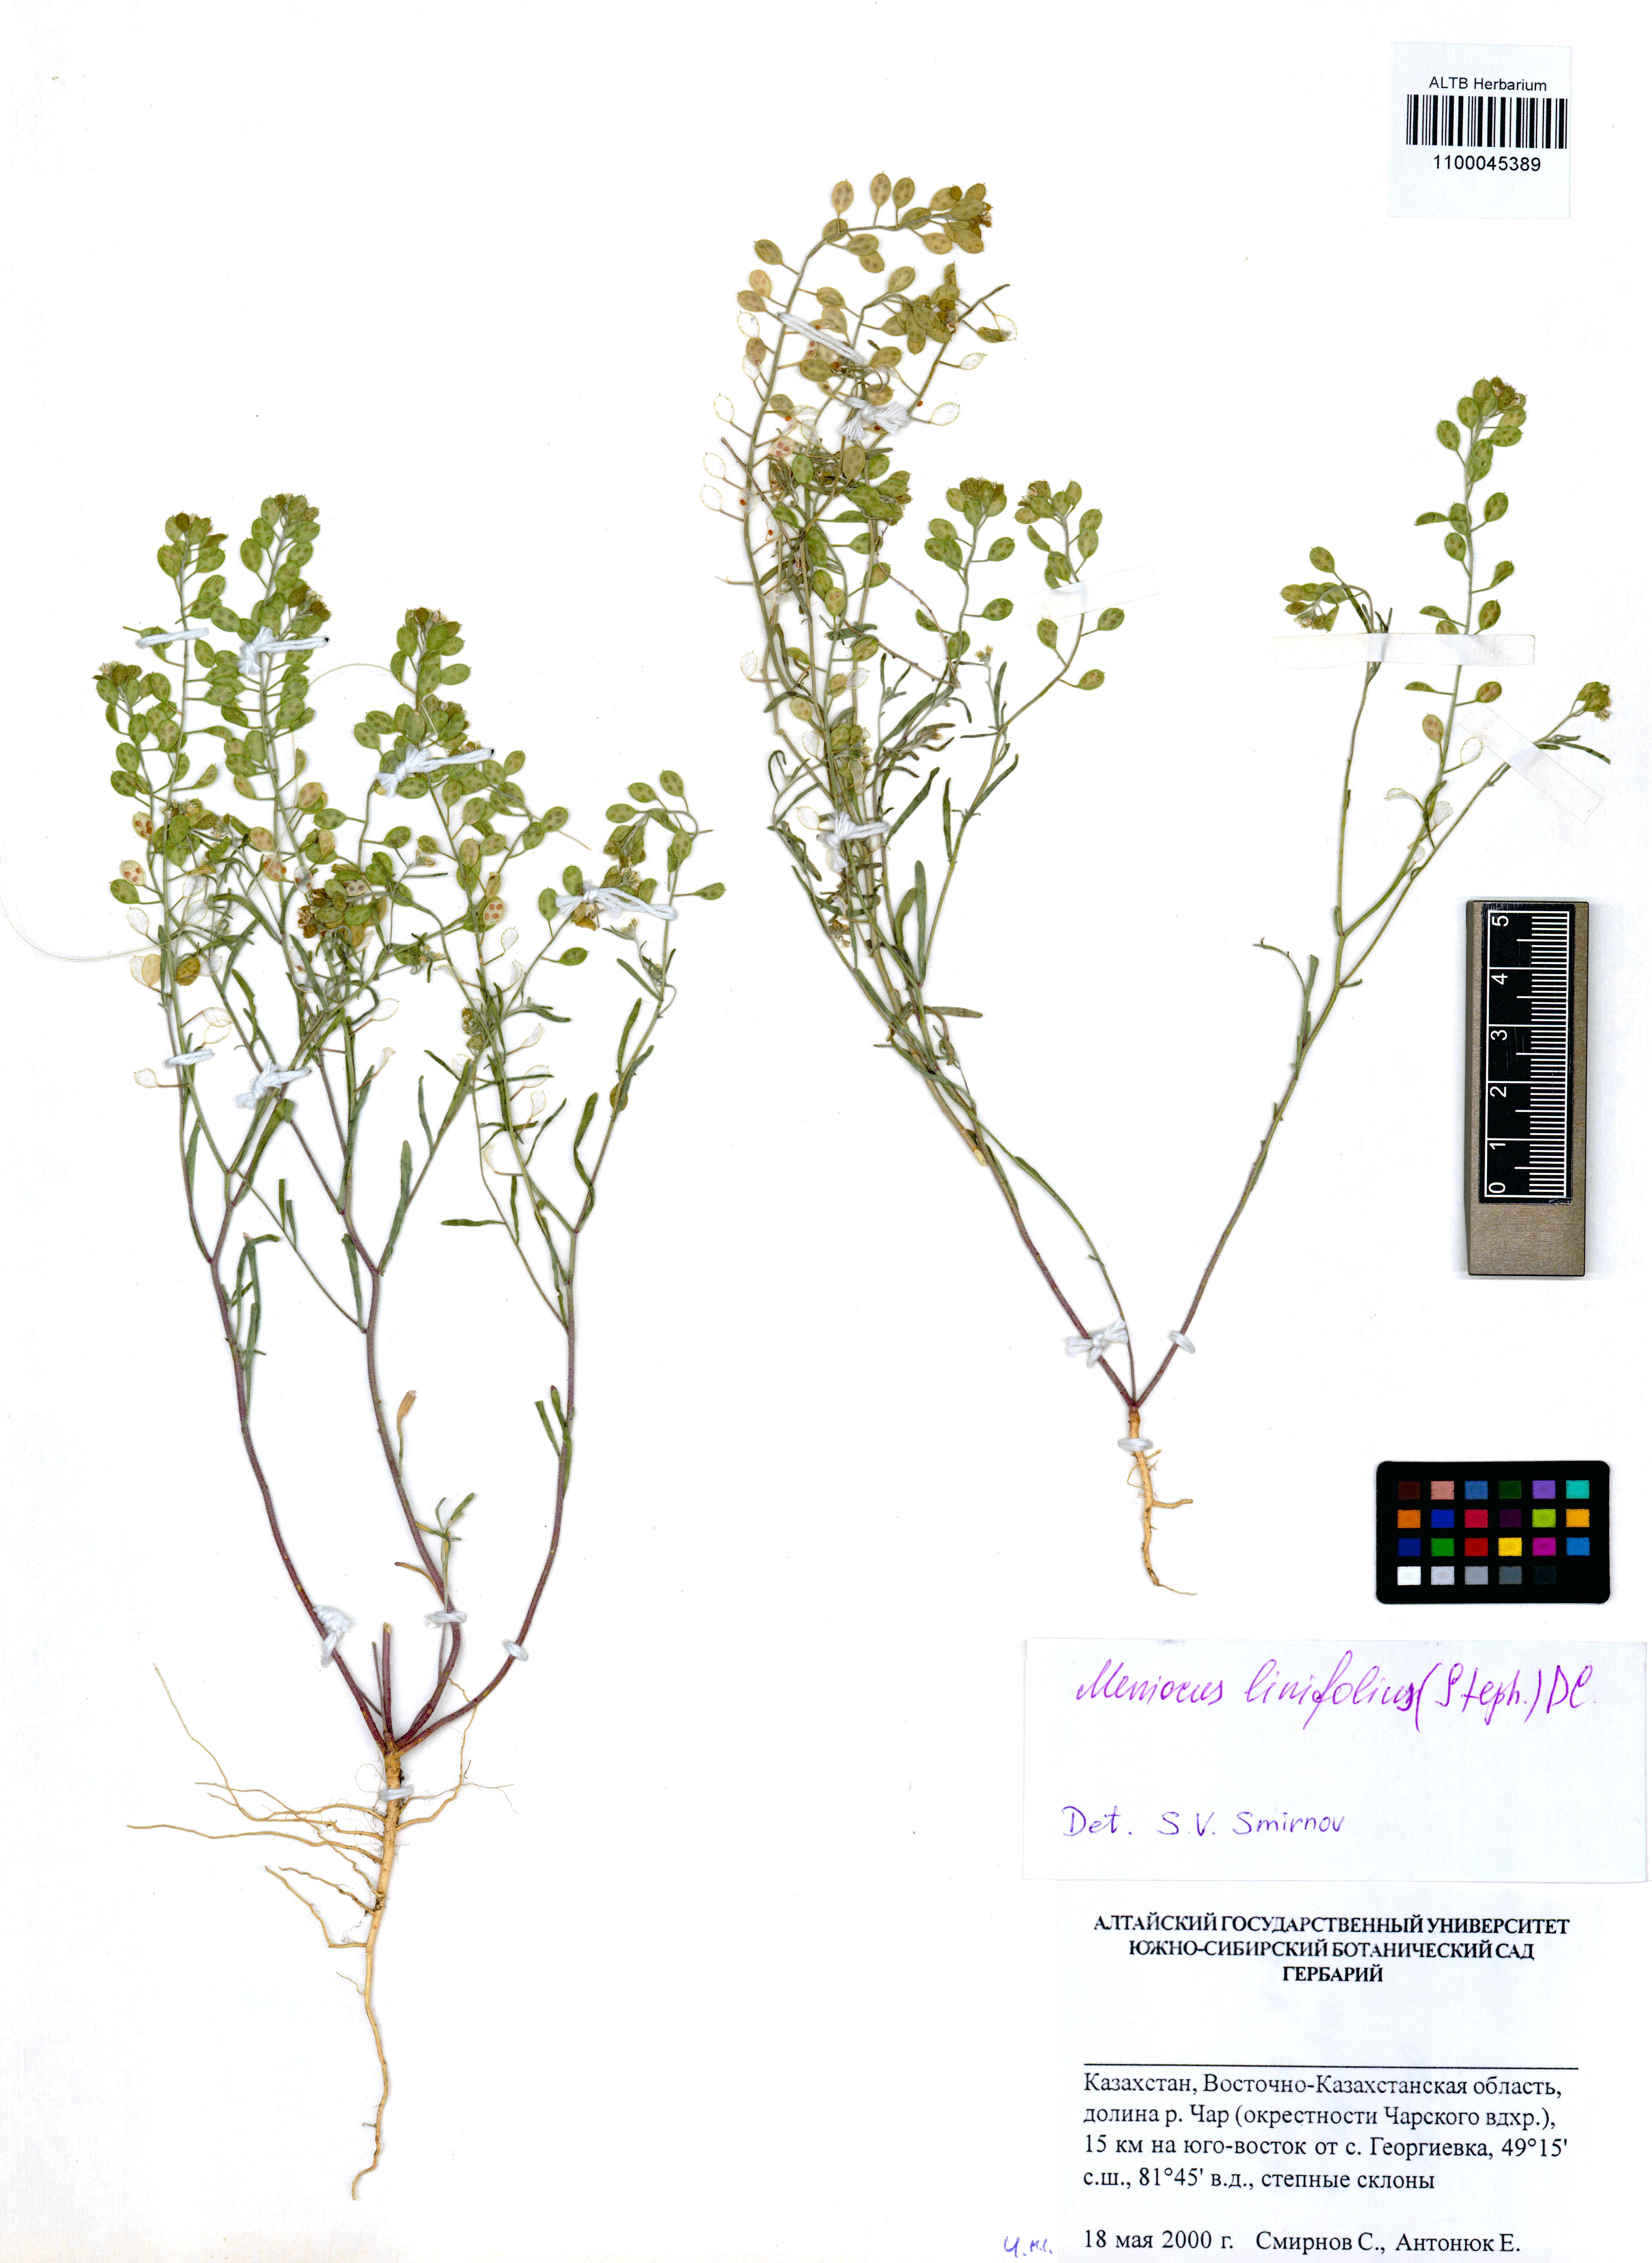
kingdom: Plantae
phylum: Tracheophyta
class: Magnoliopsida
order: Brassicales
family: Brassicaceae
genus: Meniocus
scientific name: Meniocus linifolius
